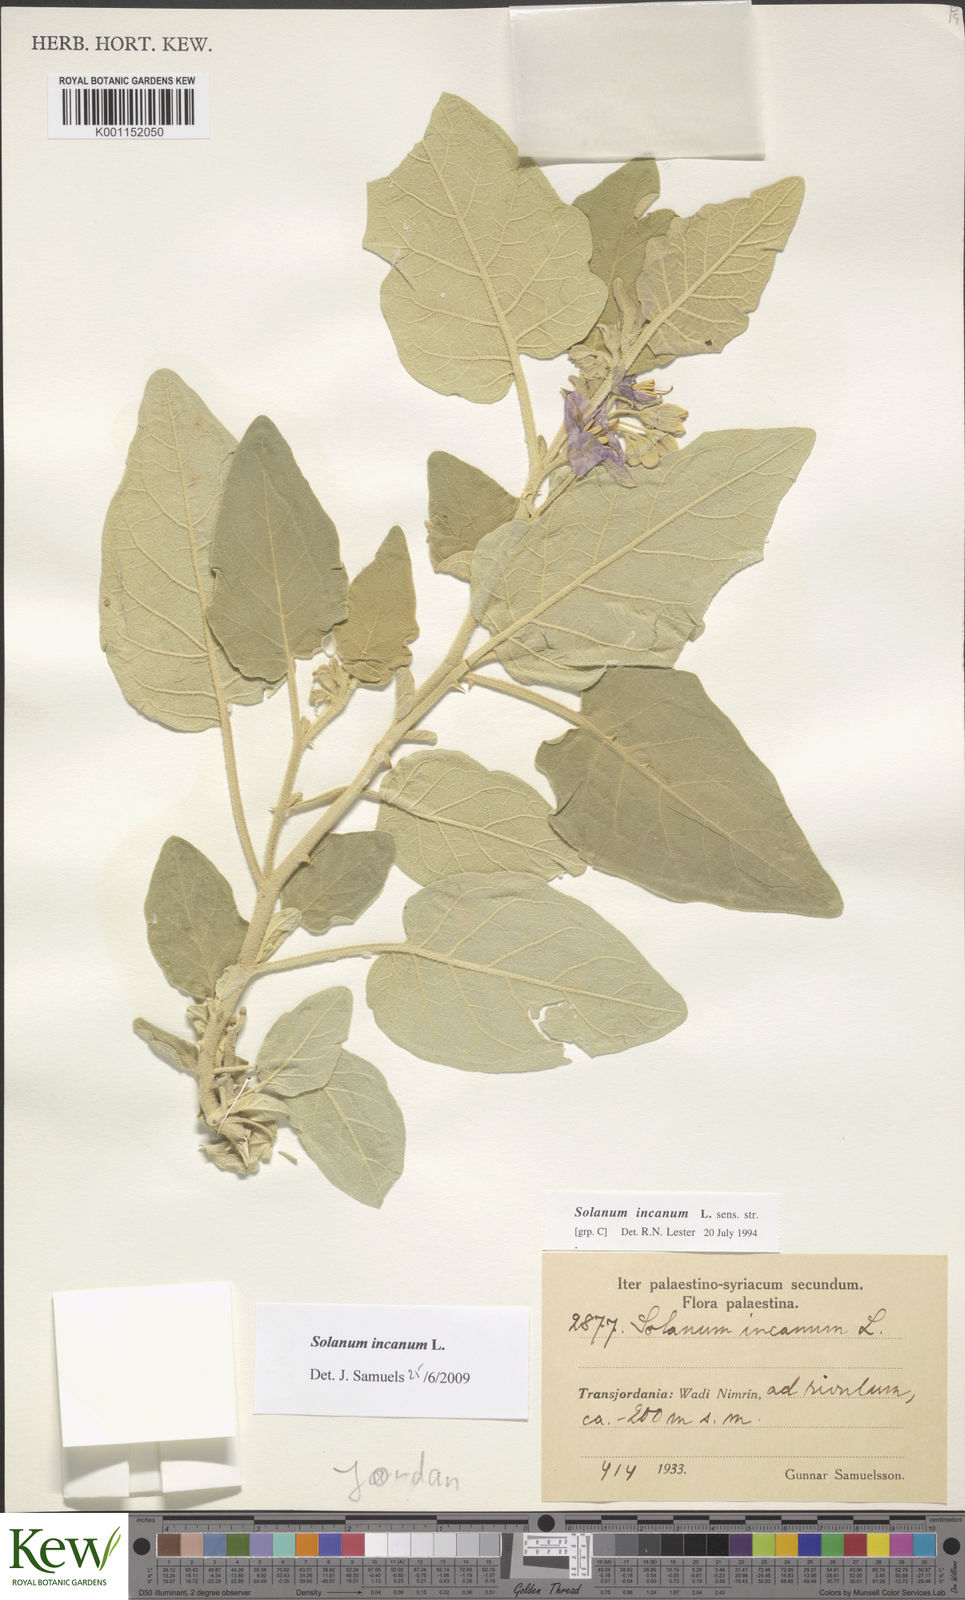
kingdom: Plantae
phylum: Tracheophyta
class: Magnoliopsida
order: Solanales
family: Solanaceae
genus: Solanum
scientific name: Solanum incanum
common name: Bitter apple
